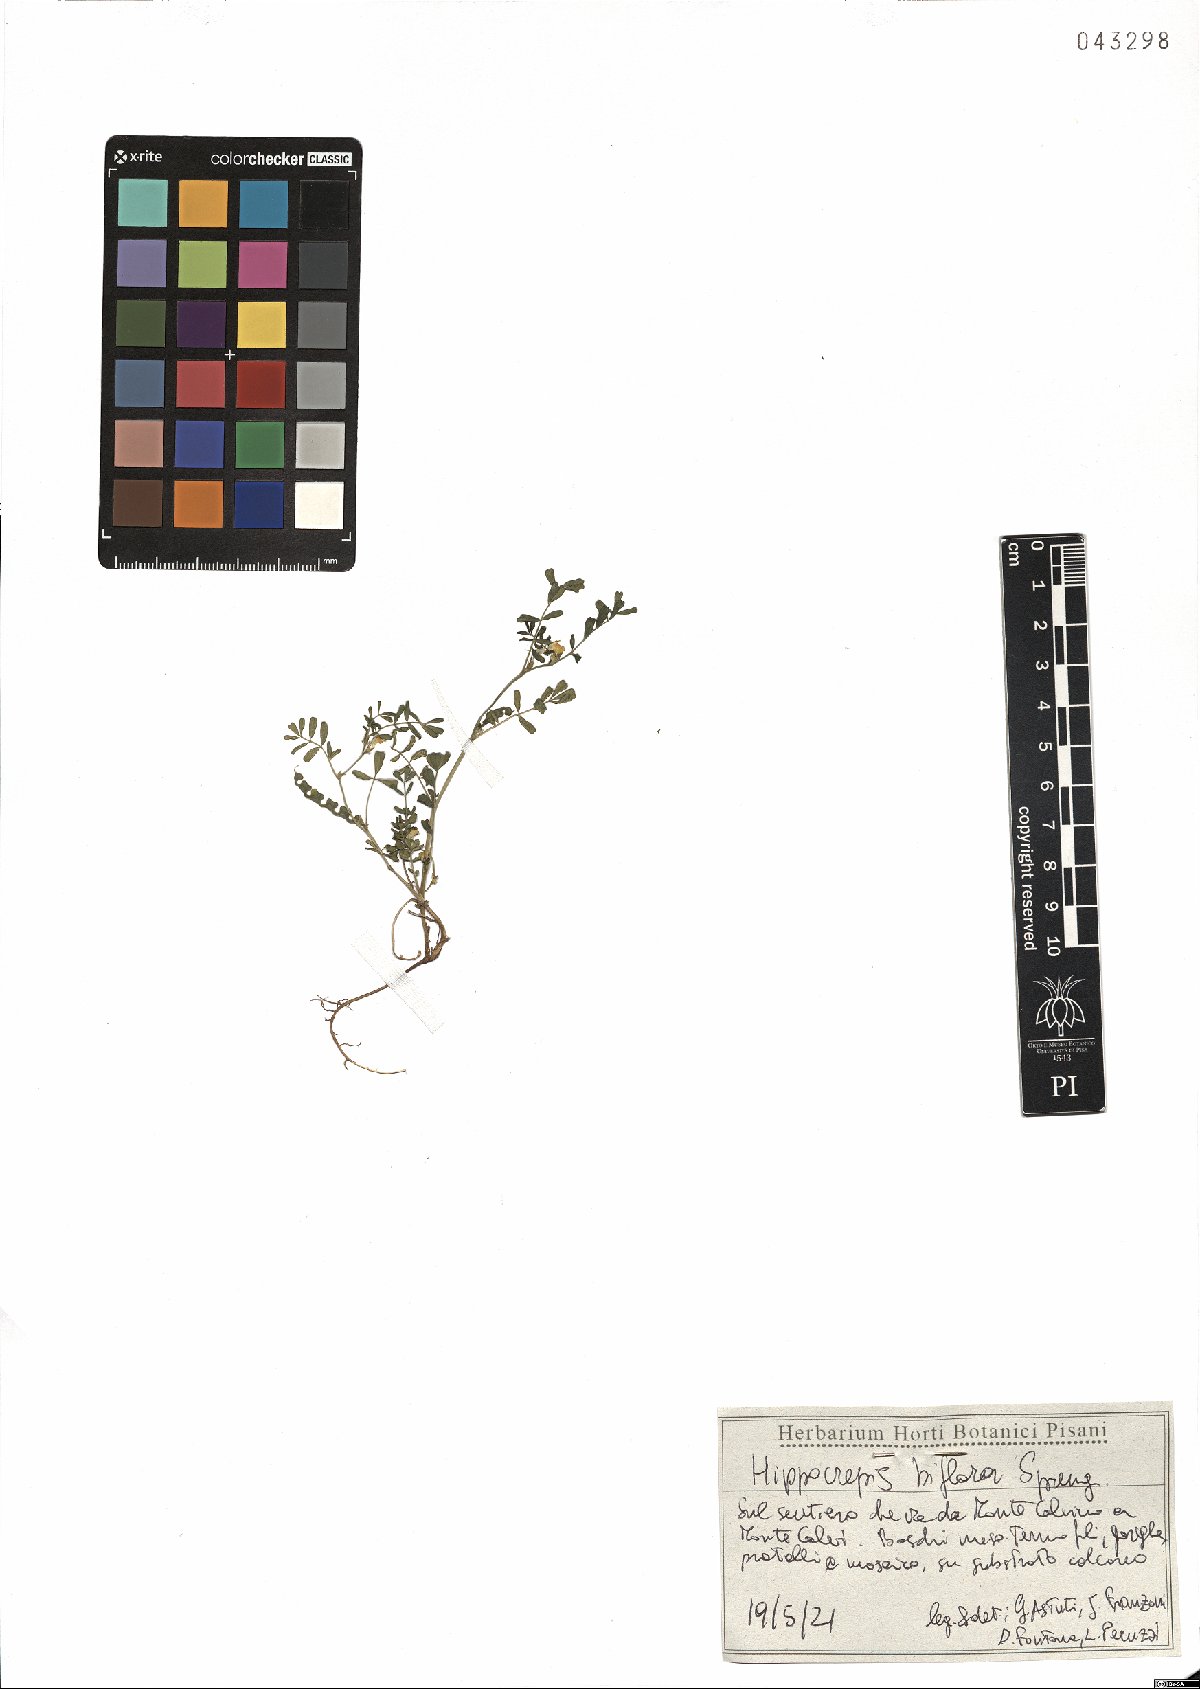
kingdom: Plantae
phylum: Tracheophyta
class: Magnoliopsida
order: Fabales
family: Fabaceae
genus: Hippocrepis
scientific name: Hippocrepis biflora
